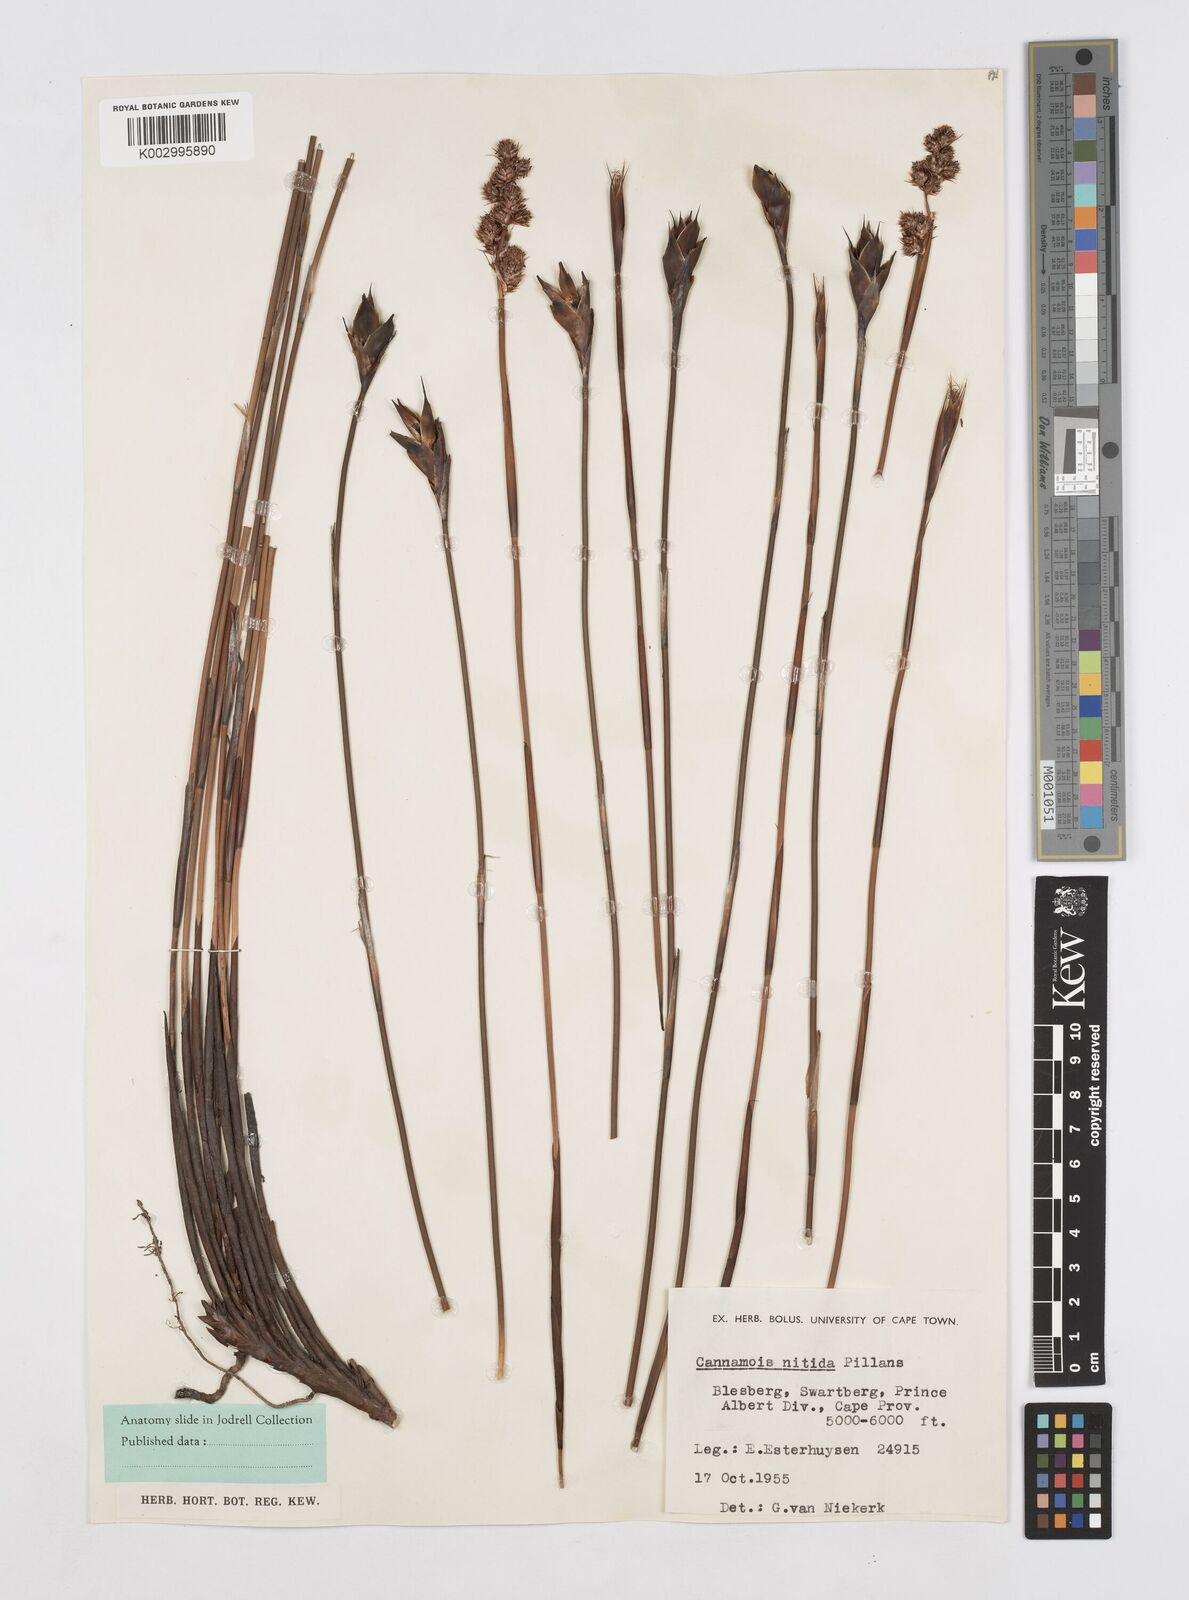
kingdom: Plantae
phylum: Tracheophyta
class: Liliopsida
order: Poales
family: Restionaceae
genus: Cannomois
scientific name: Cannomois nitida
